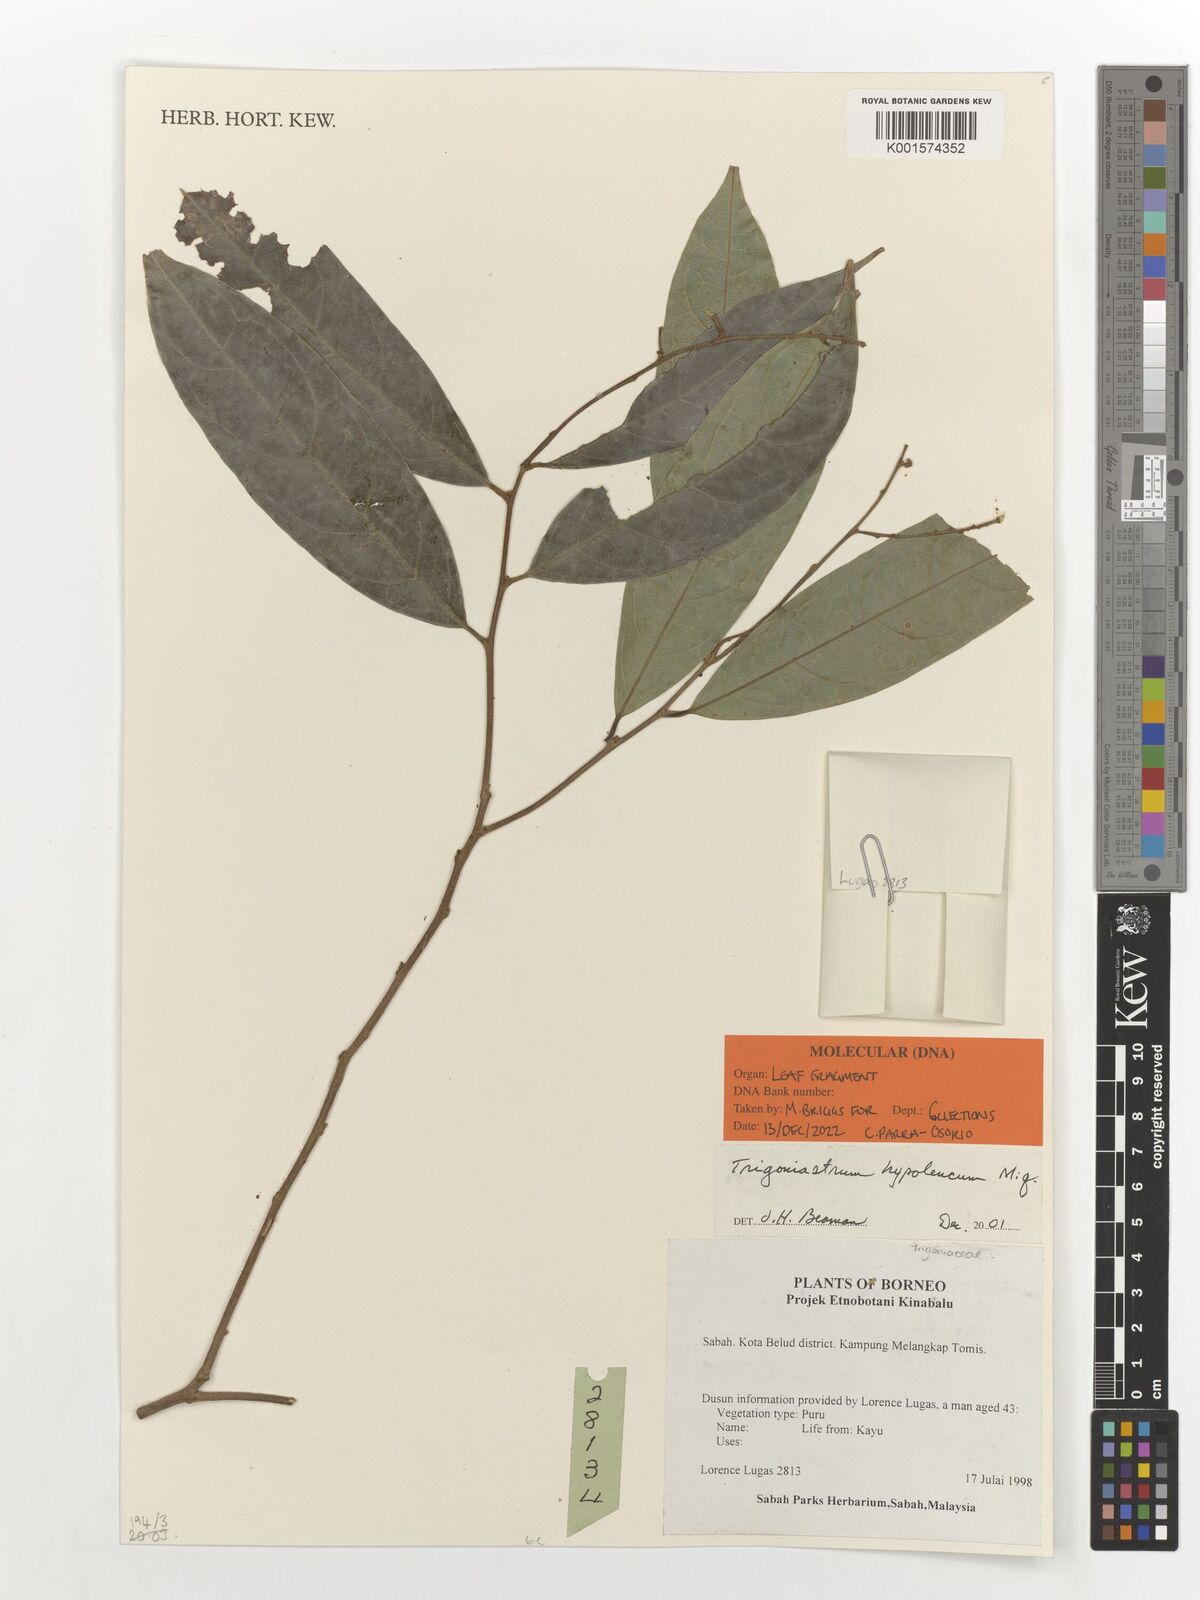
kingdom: Plantae
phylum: Tracheophyta
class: Magnoliopsida
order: Malpighiales
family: Trigoniaceae
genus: Trigoniastrum
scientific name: Trigoniastrum hypoleucum
